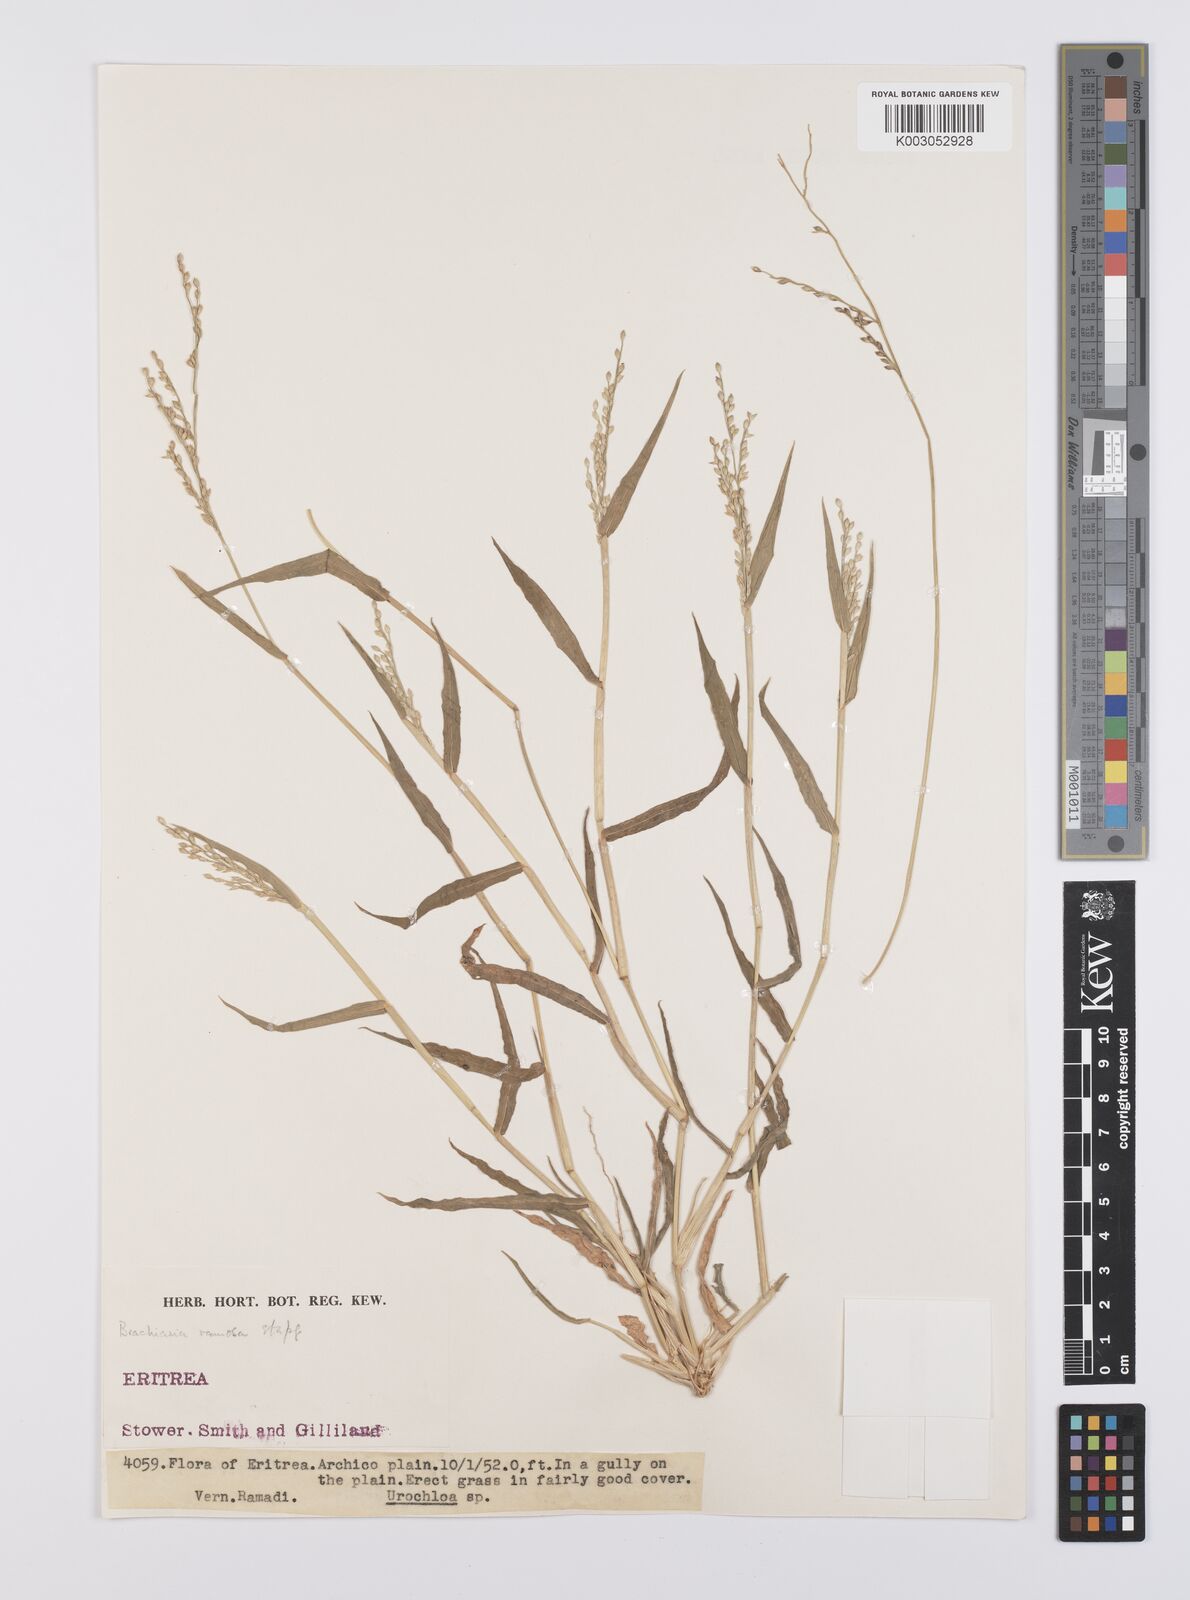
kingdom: Plantae
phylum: Tracheophyta
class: Liliopsida
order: Poales
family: Poaceae
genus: Urochloa
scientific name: Urochloa ramosa
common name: Browntop millet
